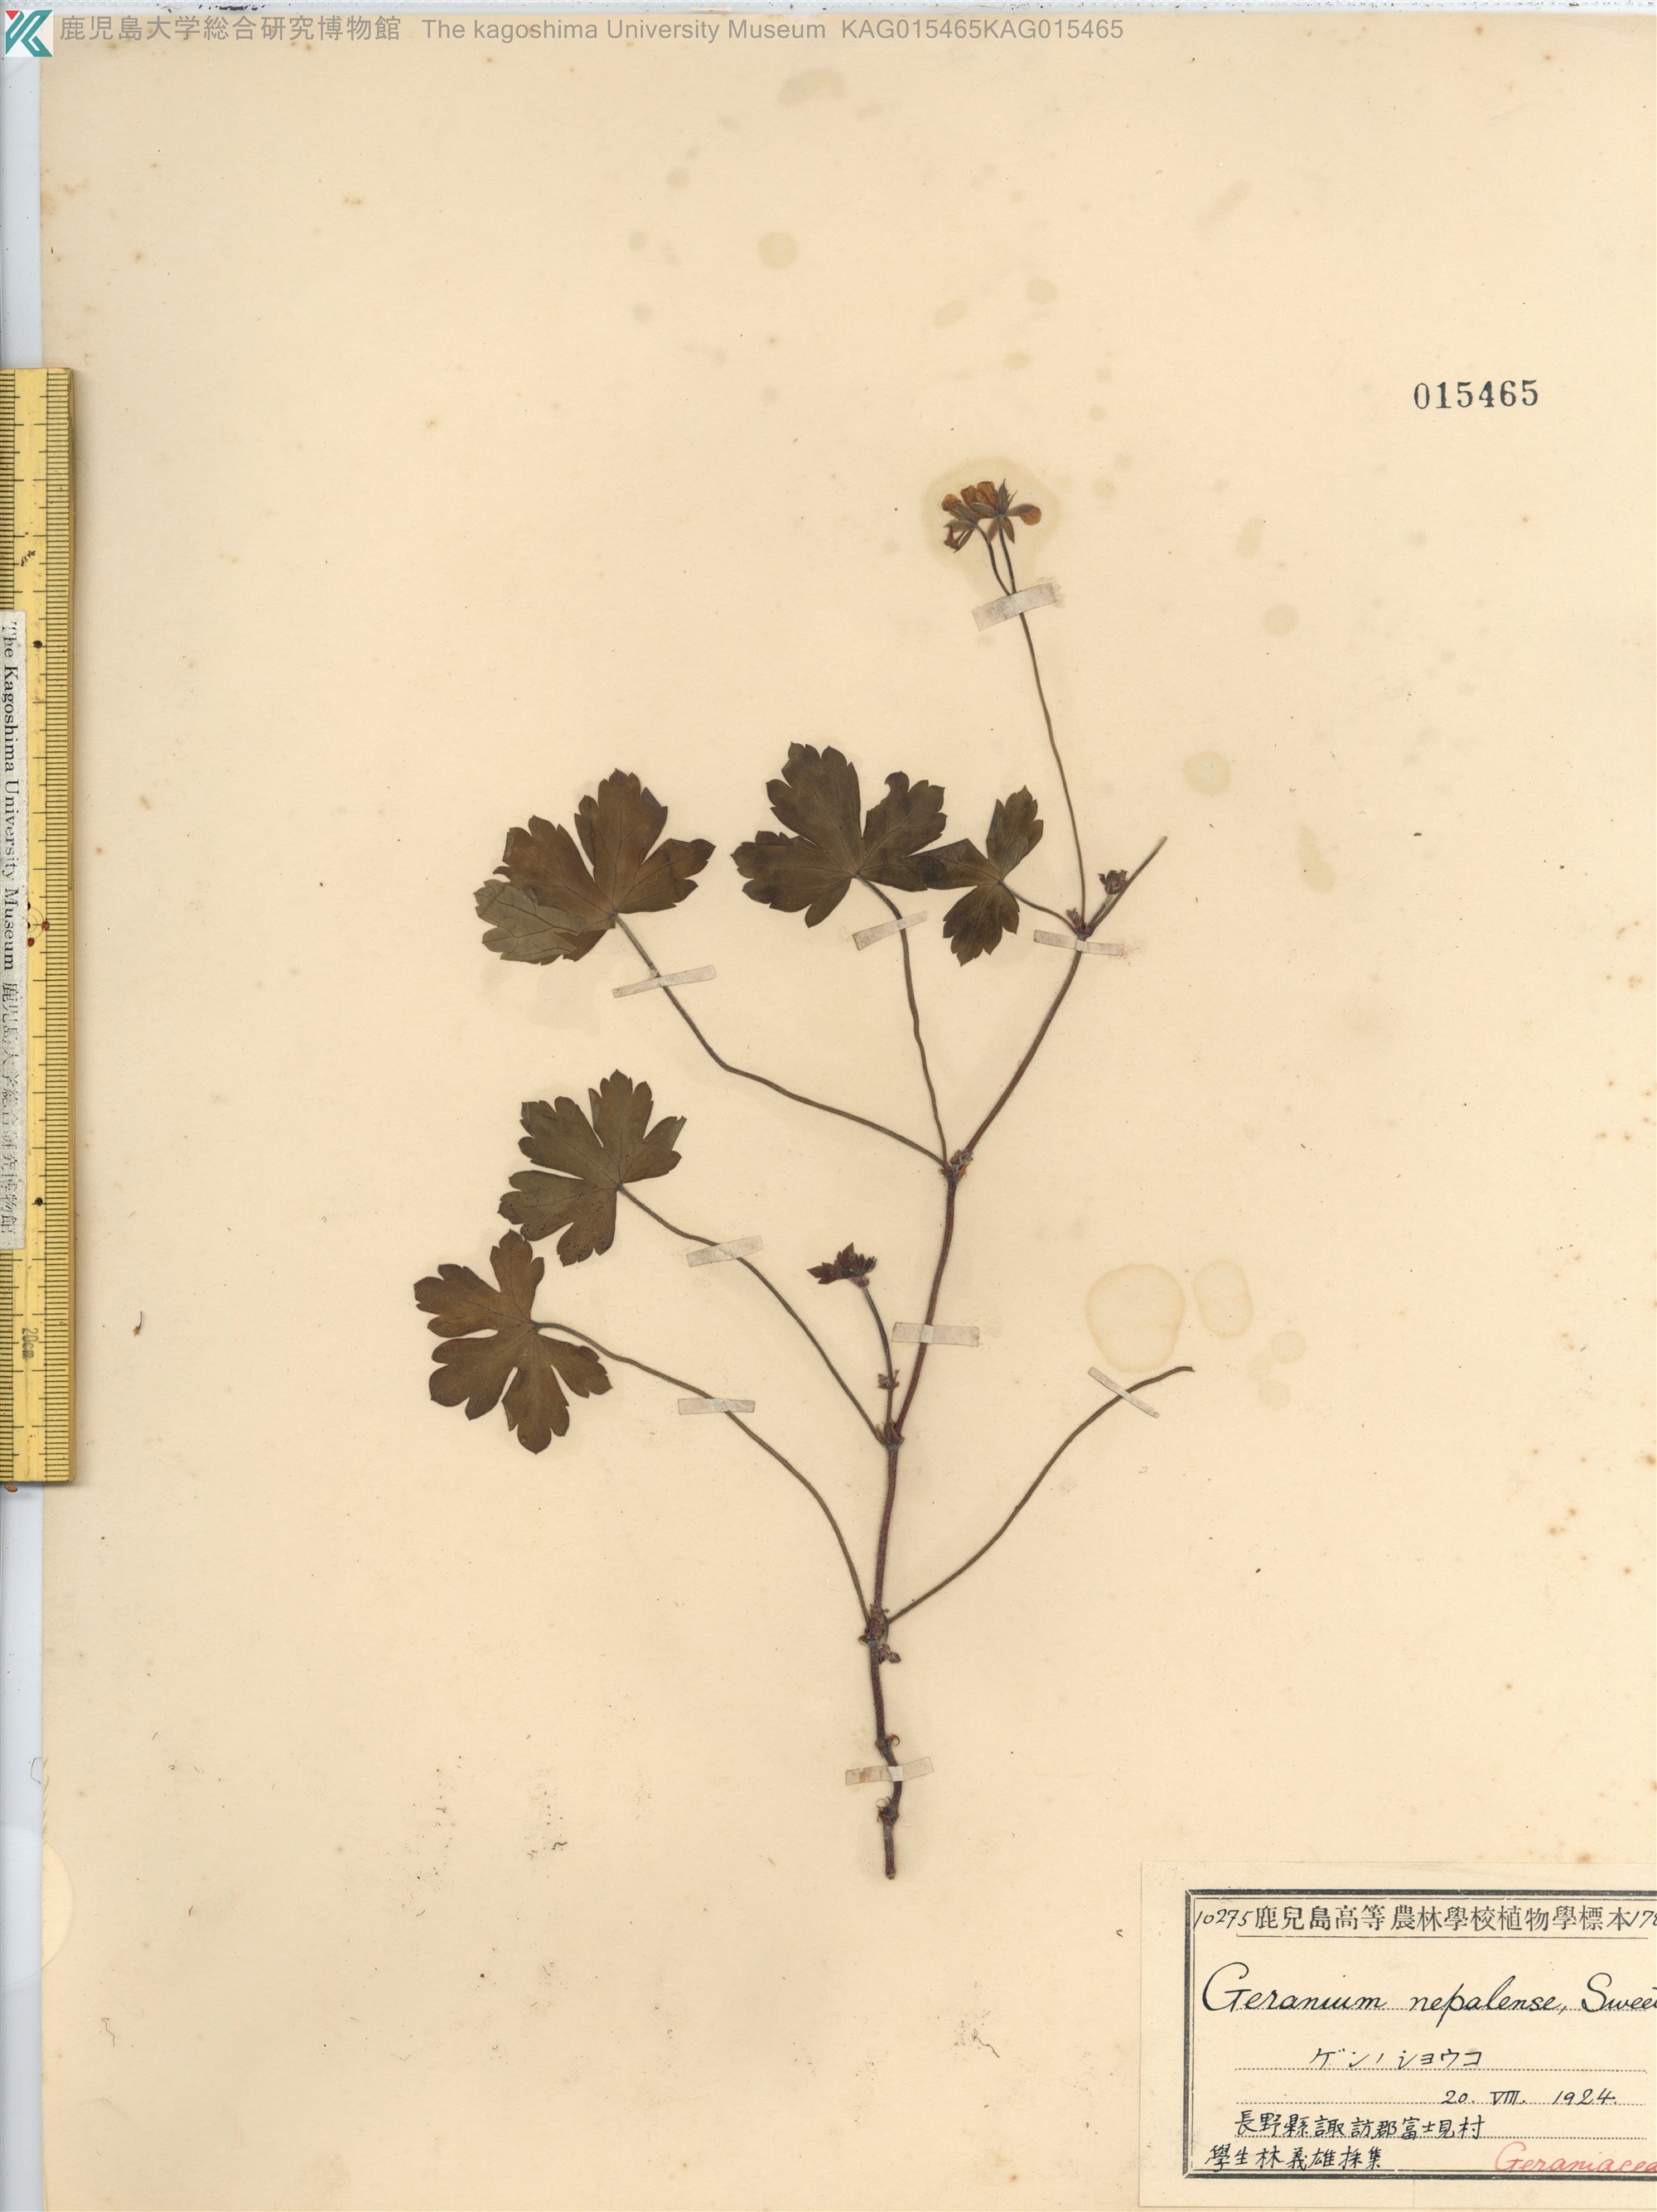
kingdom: Plantae
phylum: Tracheophyta
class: Magnoliopsida
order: Geraniales
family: Geraniaceae
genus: Geranium
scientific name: Geranium thunbergii
